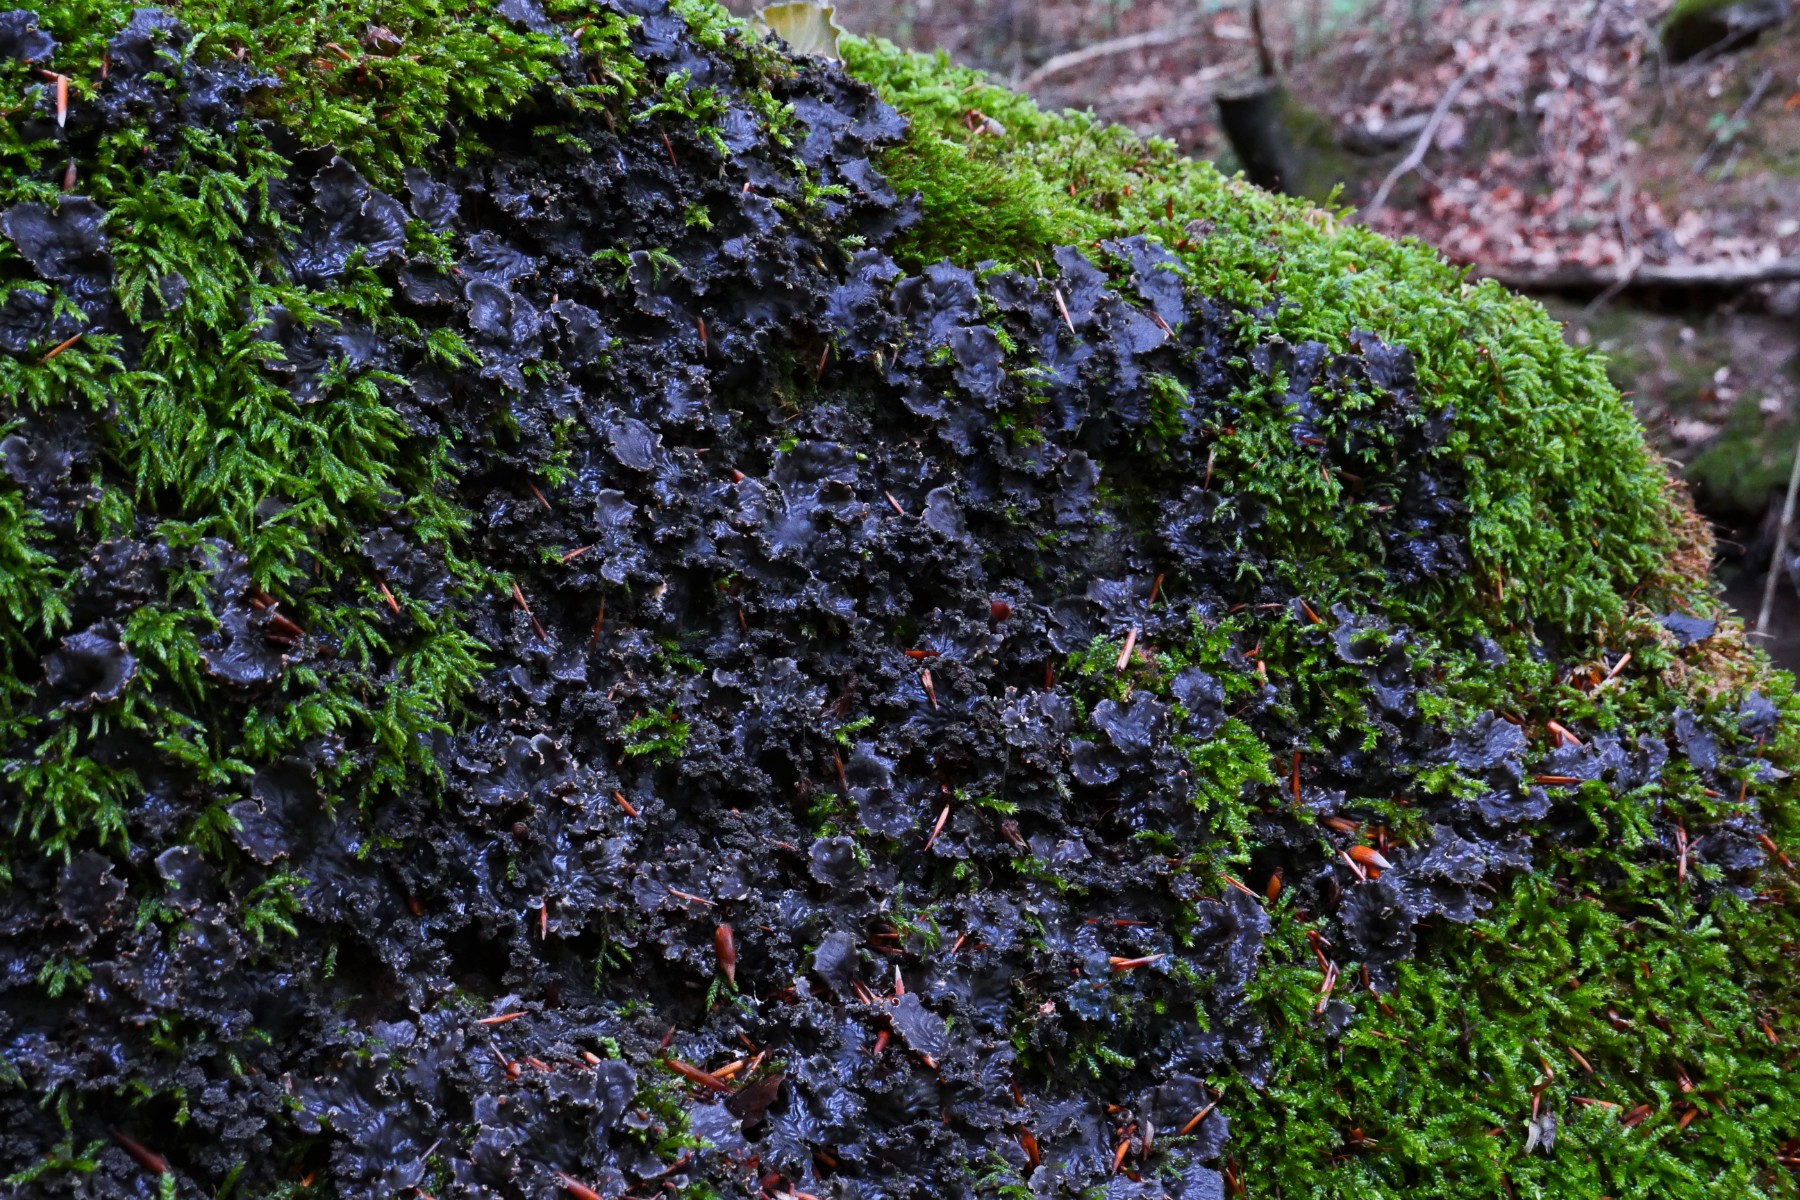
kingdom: Fungi
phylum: Ascomycota
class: Lecanoromycetes
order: Peltigerales
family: Peltigeraceae
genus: Peltigera
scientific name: Peltigera praetextata
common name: kruset skjoldlav
